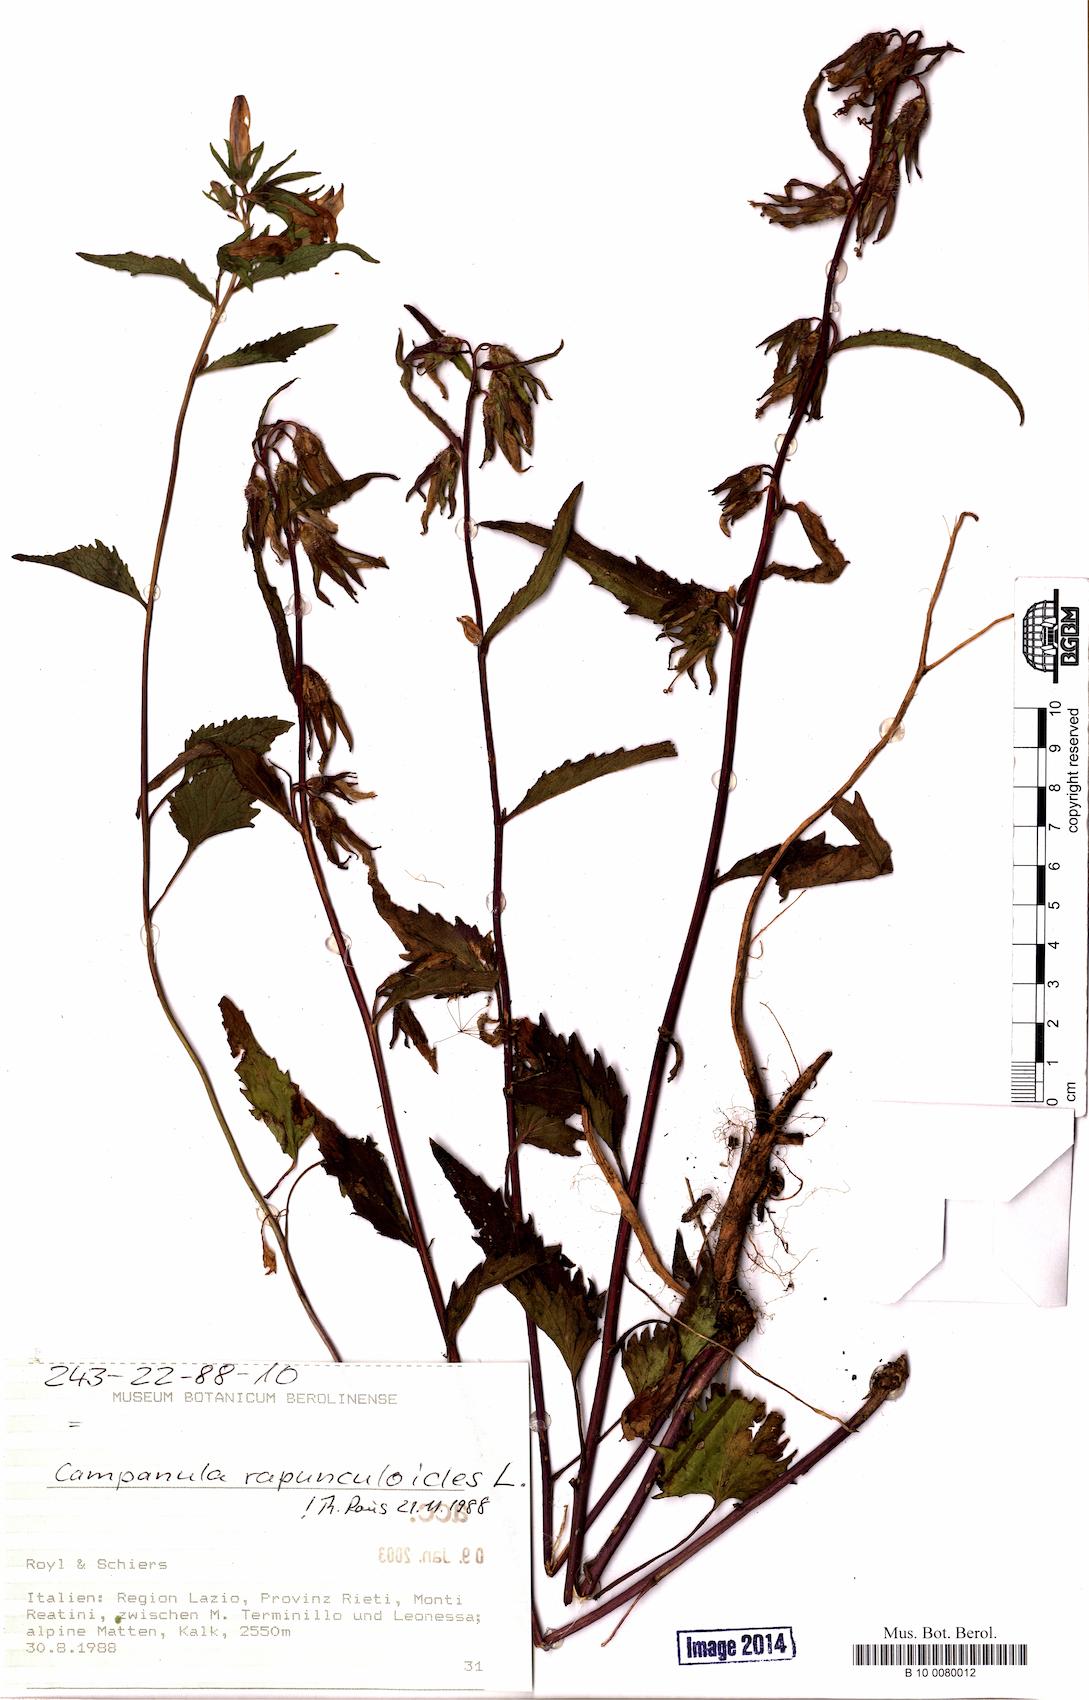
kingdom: Plantae
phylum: Tracheophyta
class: Magnoliopsida
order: Asterales
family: Campanulaceae
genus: Campanula
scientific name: Campanula rapunculoides
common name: Creeping bellflower
